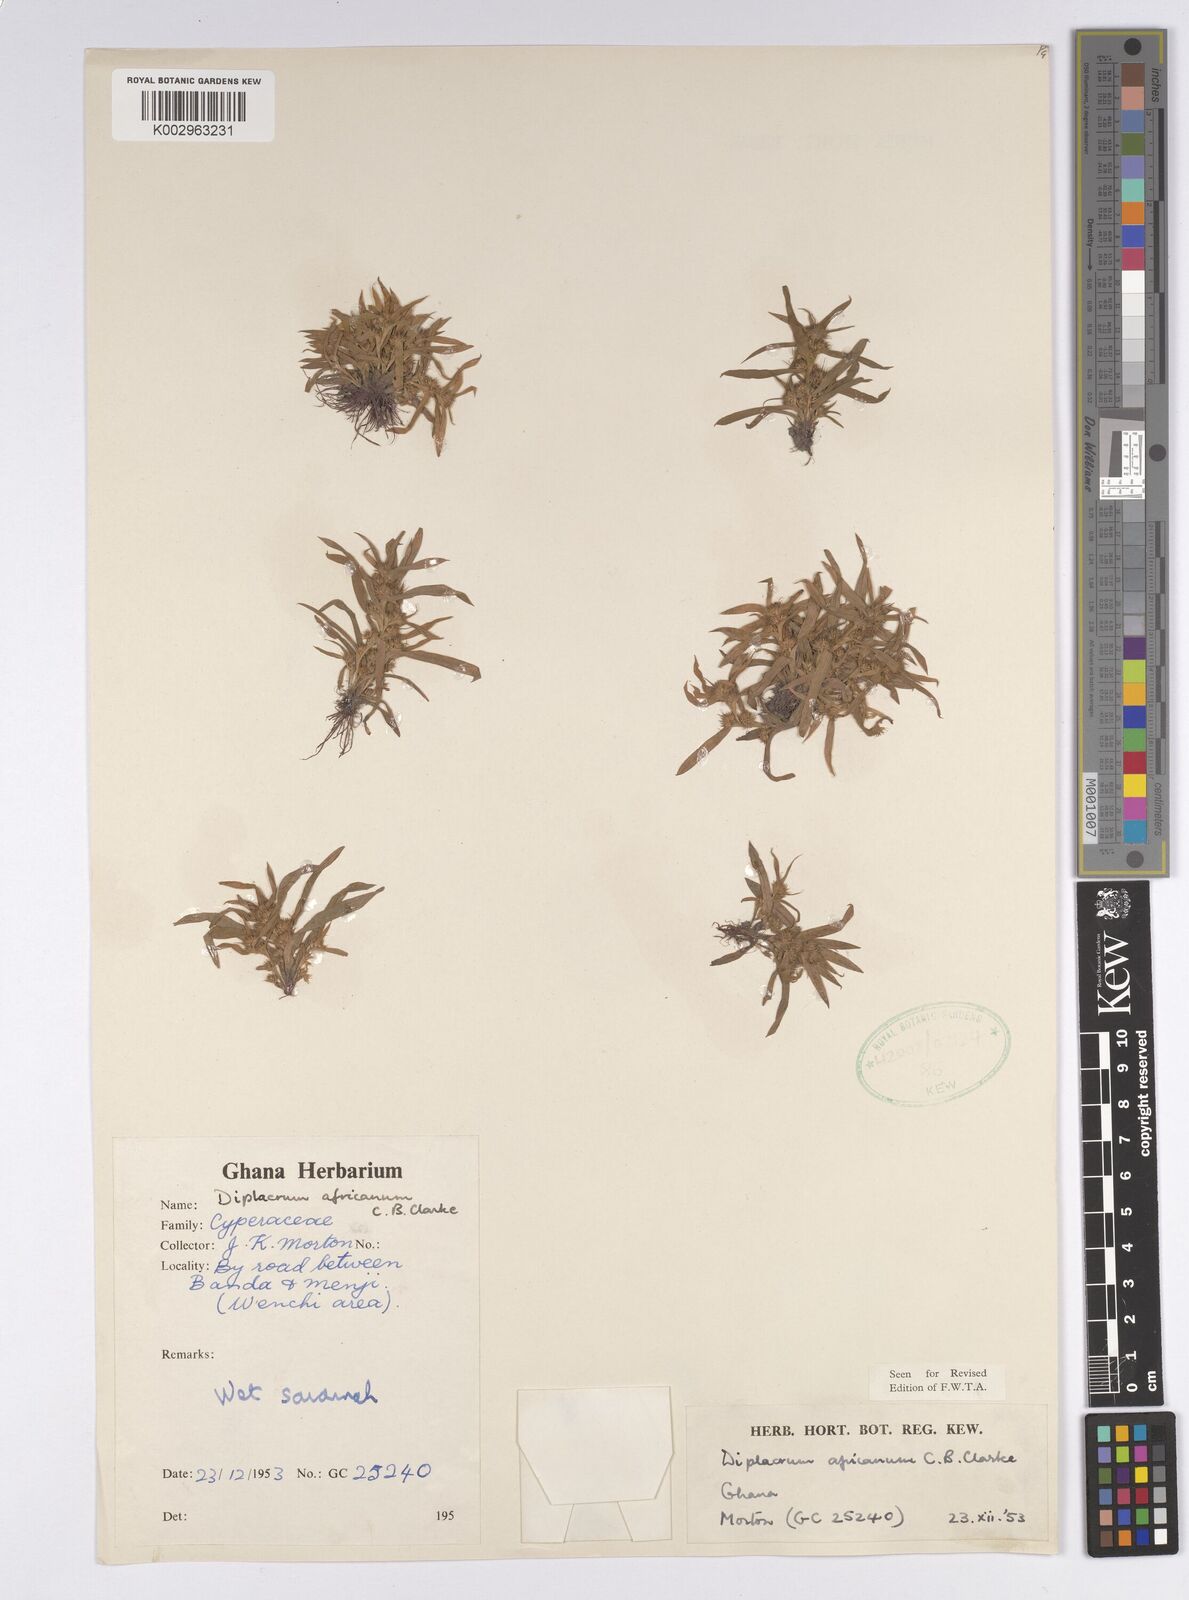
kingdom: Plantae
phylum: Tracheophyta
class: Liliopsida
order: Poales
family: Cyperaceae
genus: Diplacrum
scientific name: Diplacrum africanum
